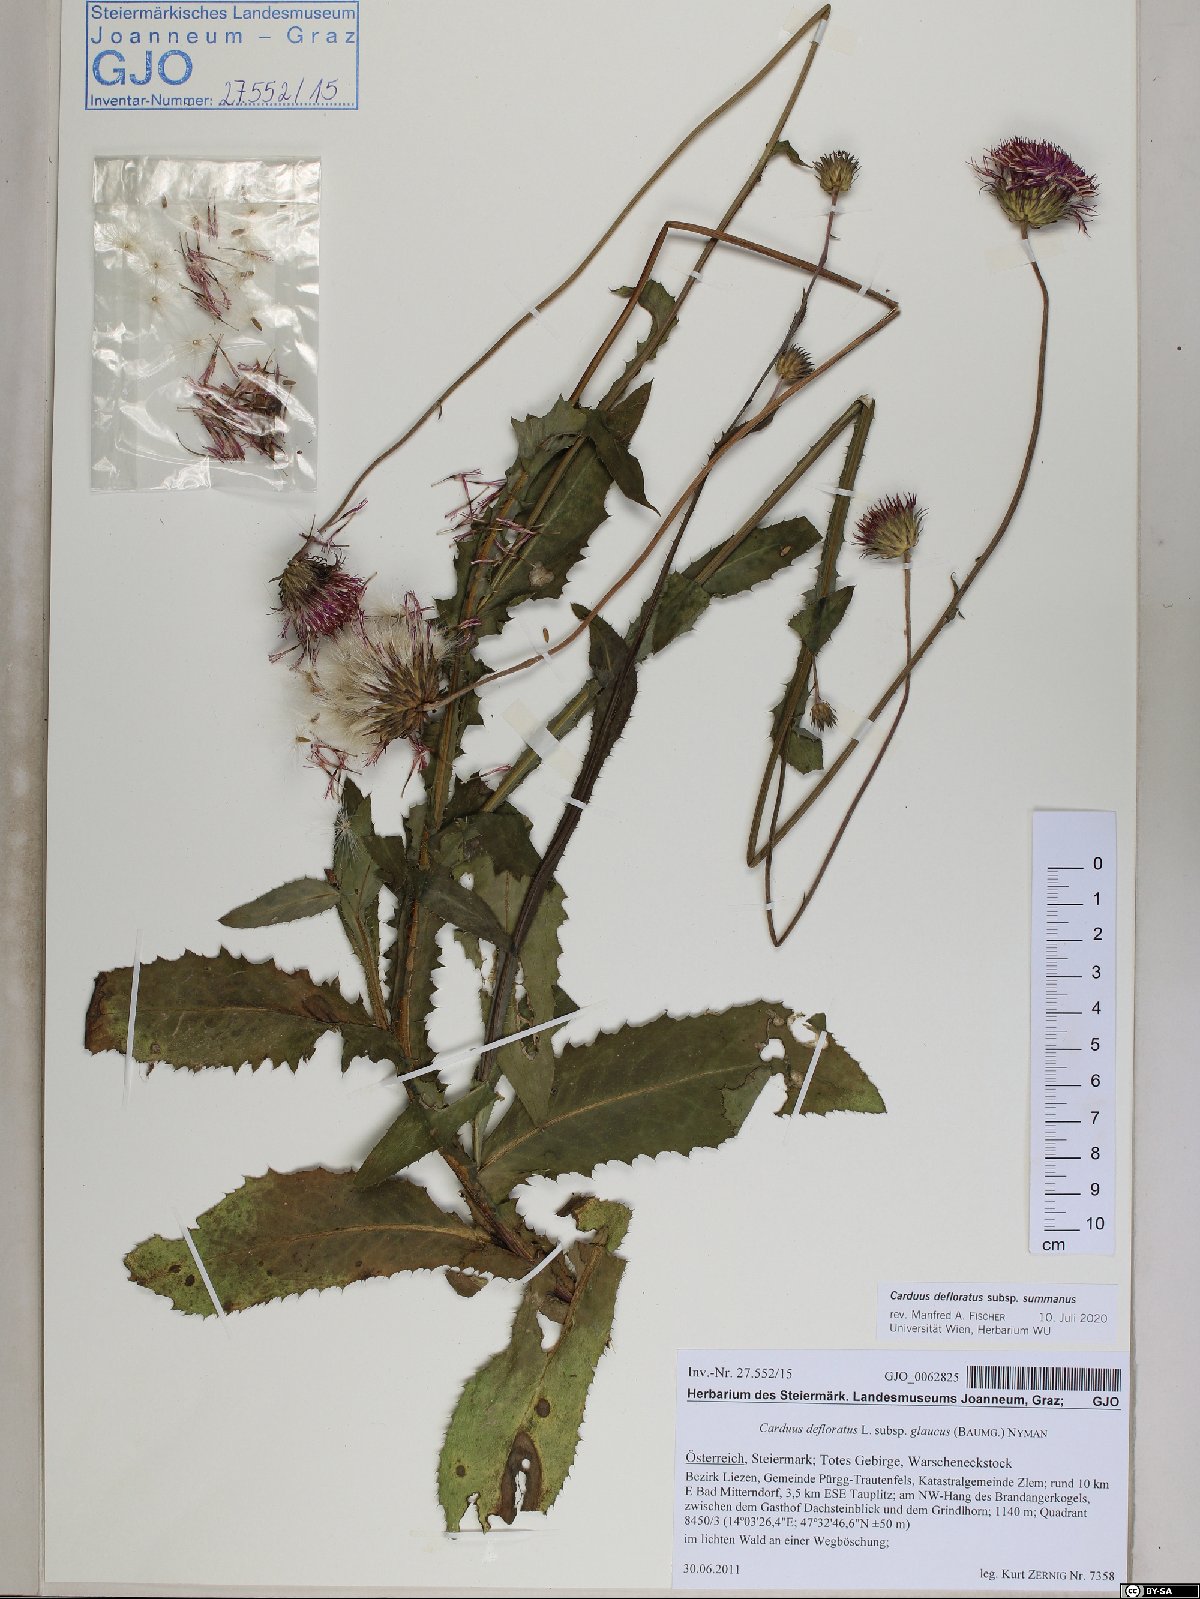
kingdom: Plantae
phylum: Tracheophyta
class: Magnoliopsida
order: Asterales
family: Asteraceae
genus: Carduus
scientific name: Carduus defloratus
